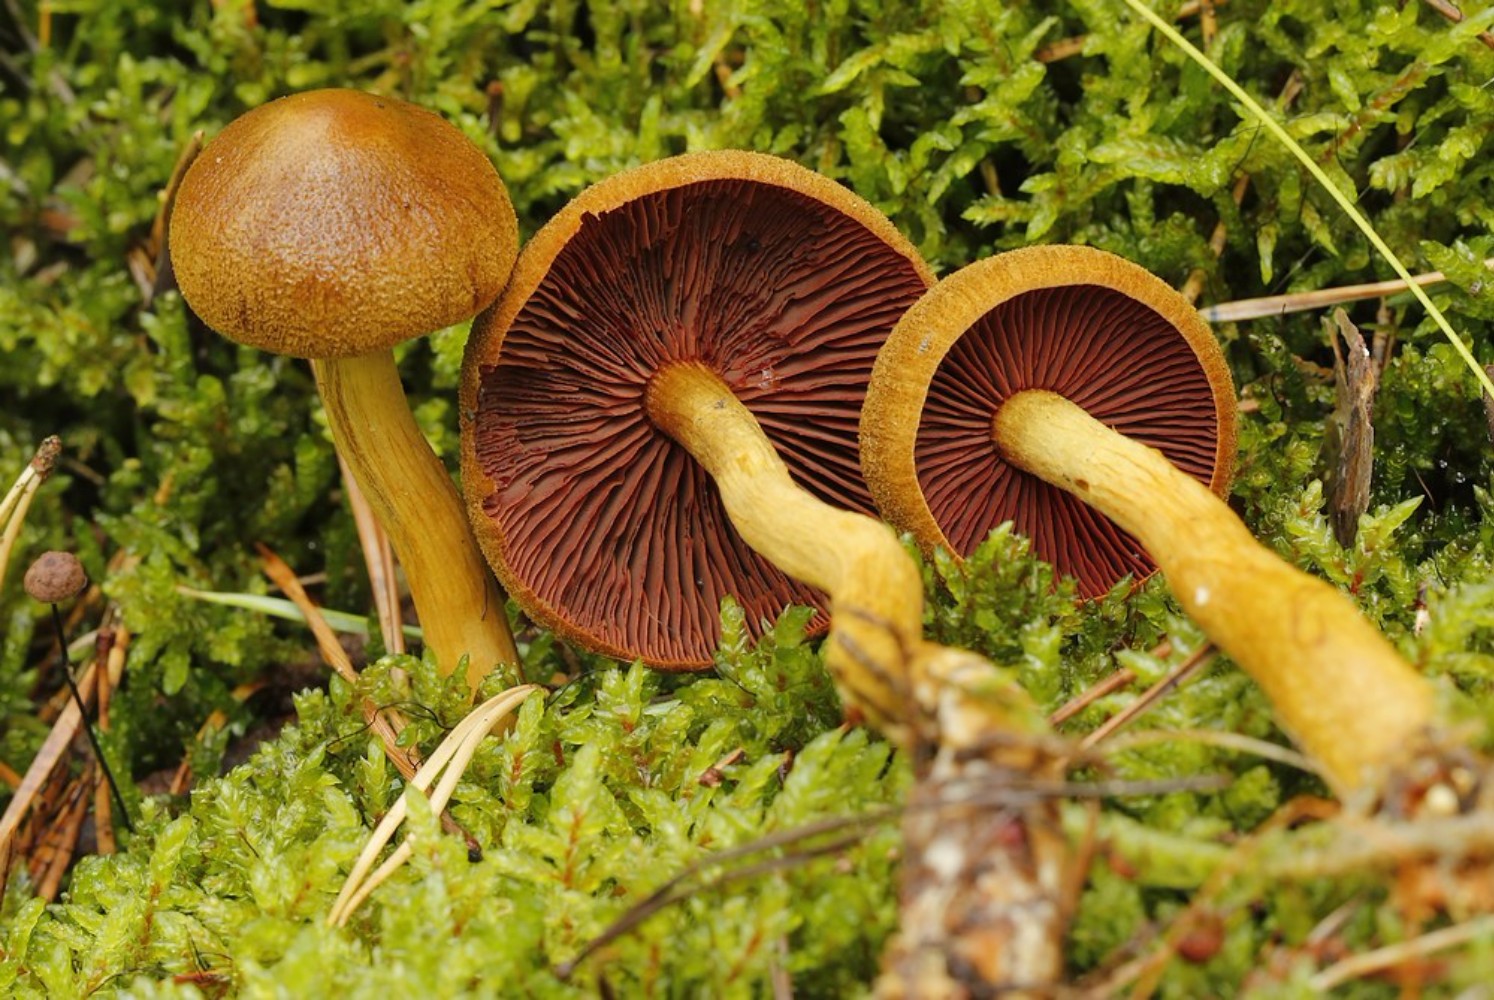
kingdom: Fungi
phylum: Basidiomycota
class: Agaricomycetes
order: Agaricales
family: Cortinariaceae
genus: Cortinarius
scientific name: Cortinarius
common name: cinnoberbladet slørhat
